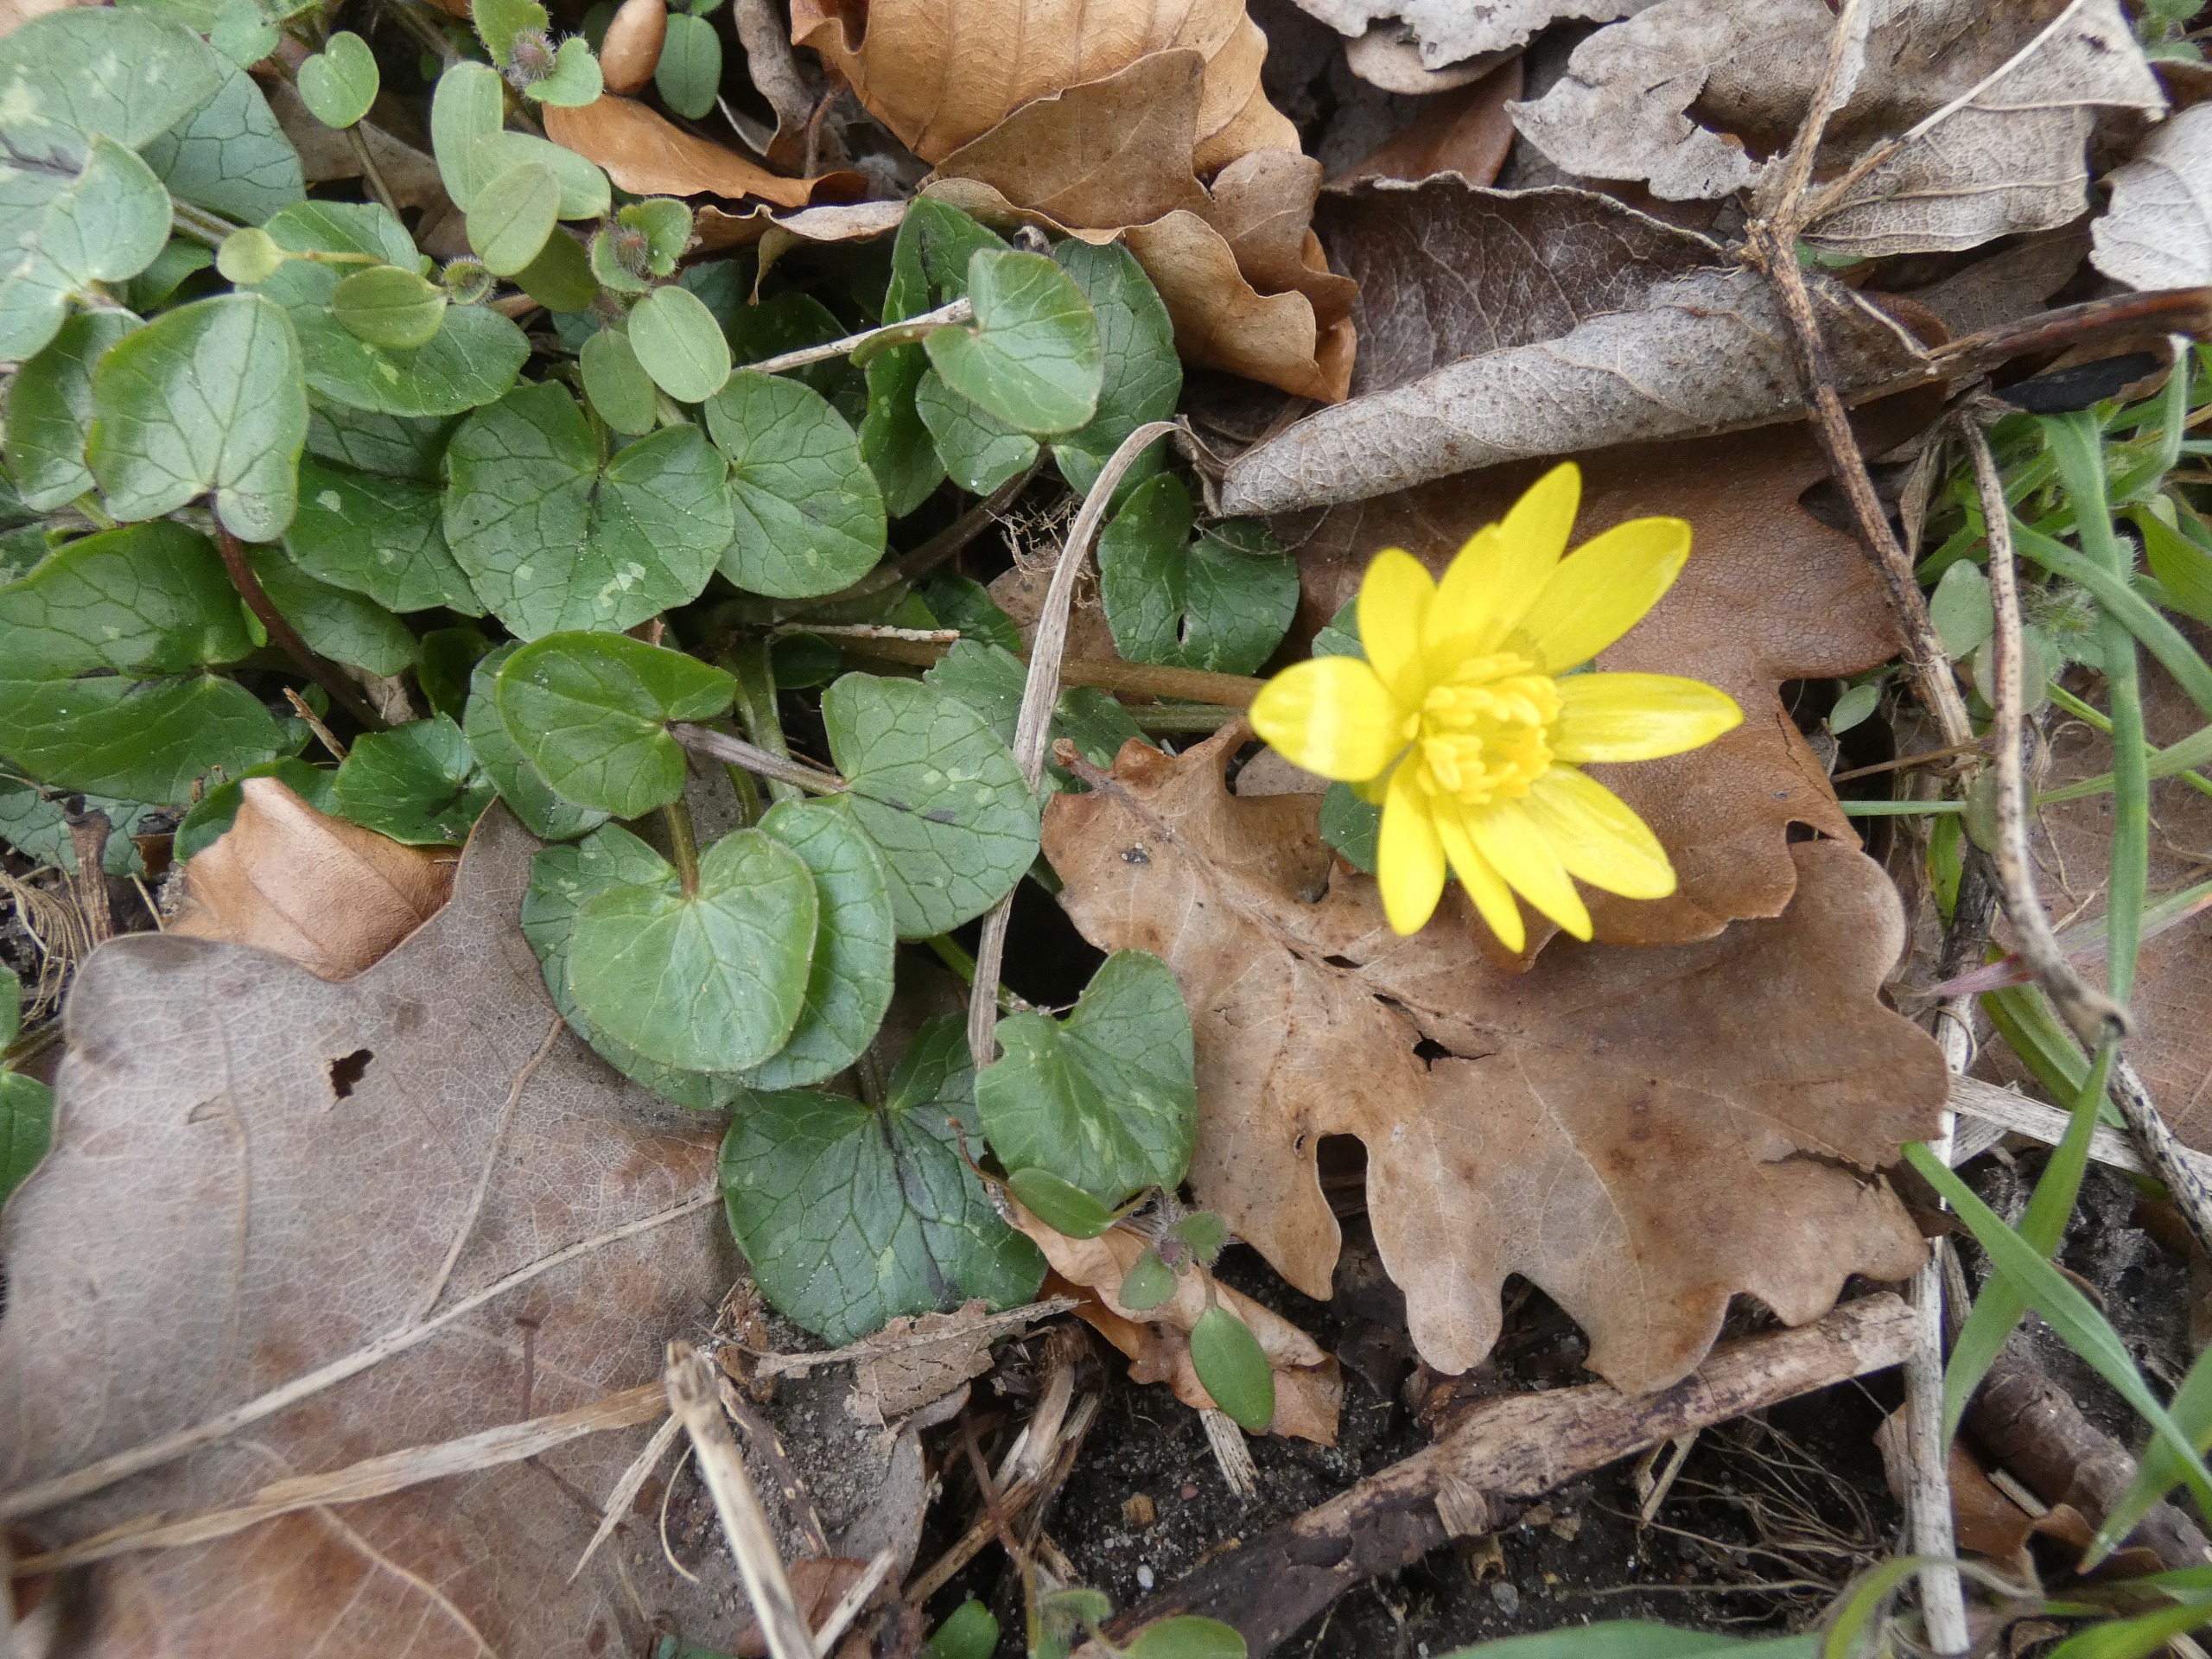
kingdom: Plantae
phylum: Tracheophyta
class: Magnoliopsida
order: Ranunculales
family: Ranunculaceae
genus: Ficaria
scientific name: Ficaria verna
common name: Vorterod
